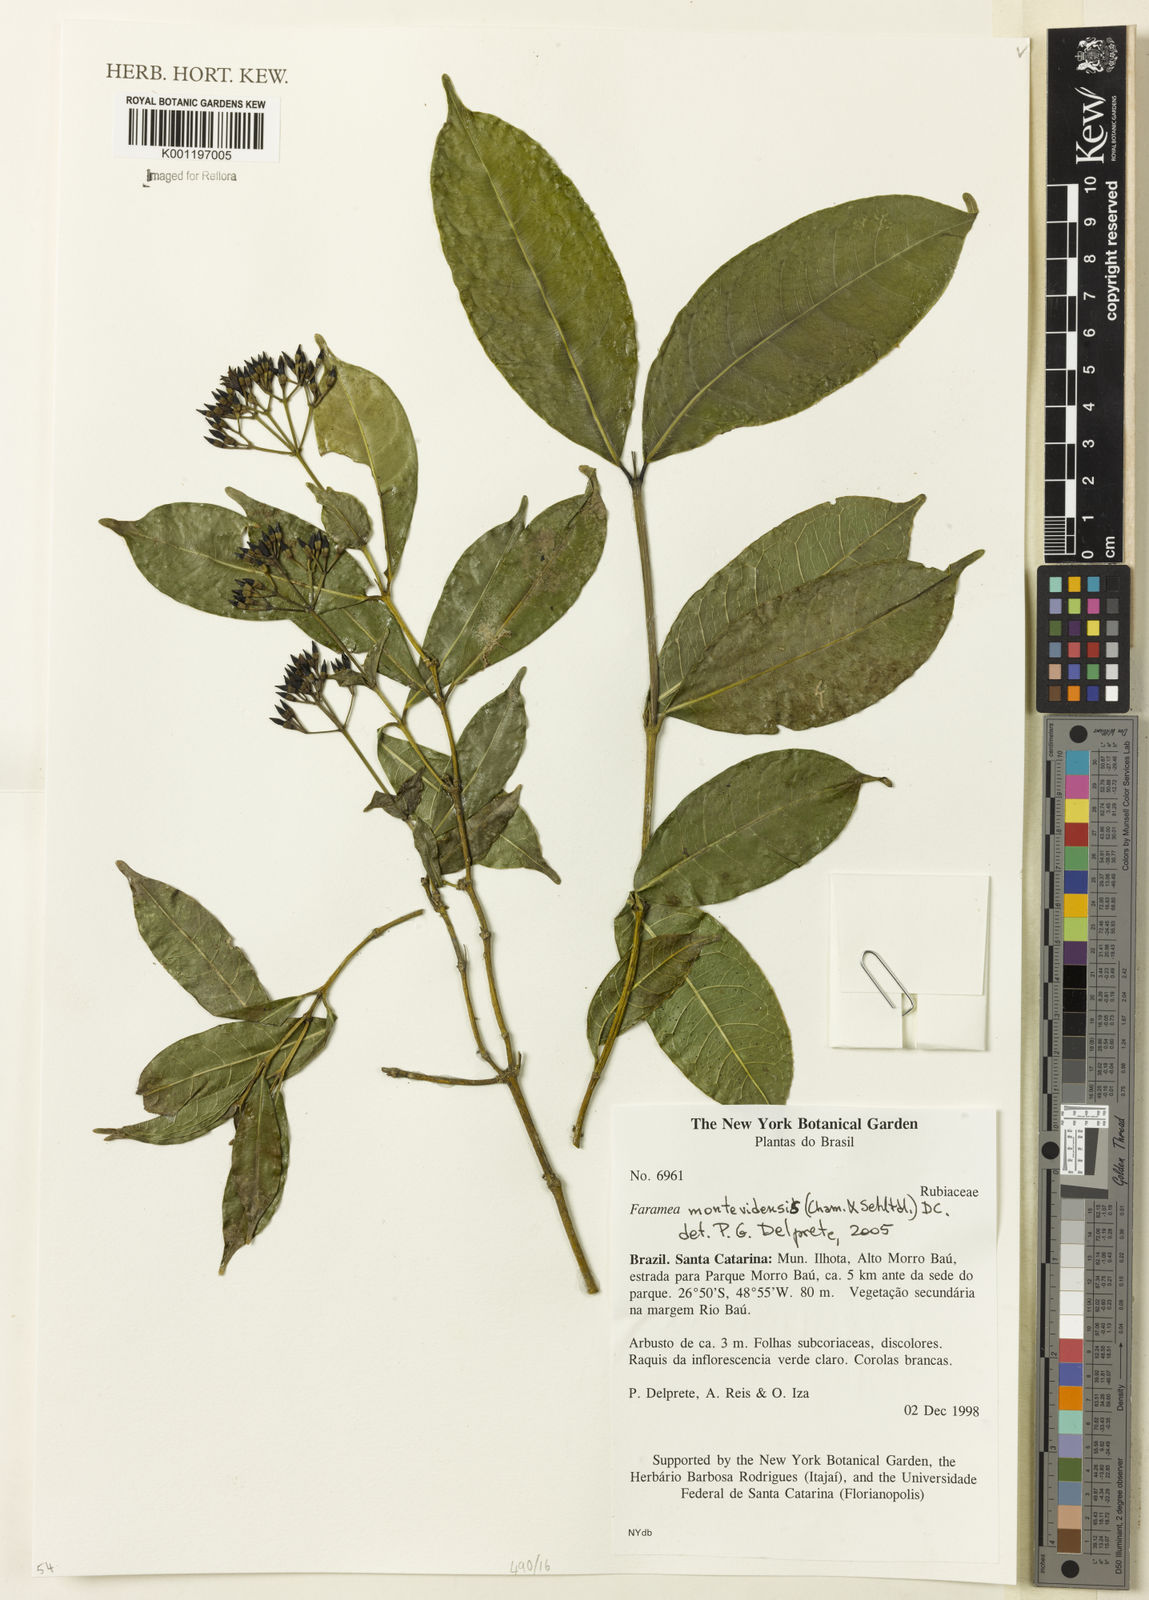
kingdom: Plantae
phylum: Tracheophyta
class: Magnoliopsida
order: Gentianales
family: Rubiaceae
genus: Faramea
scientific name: Faramea montevidensis
